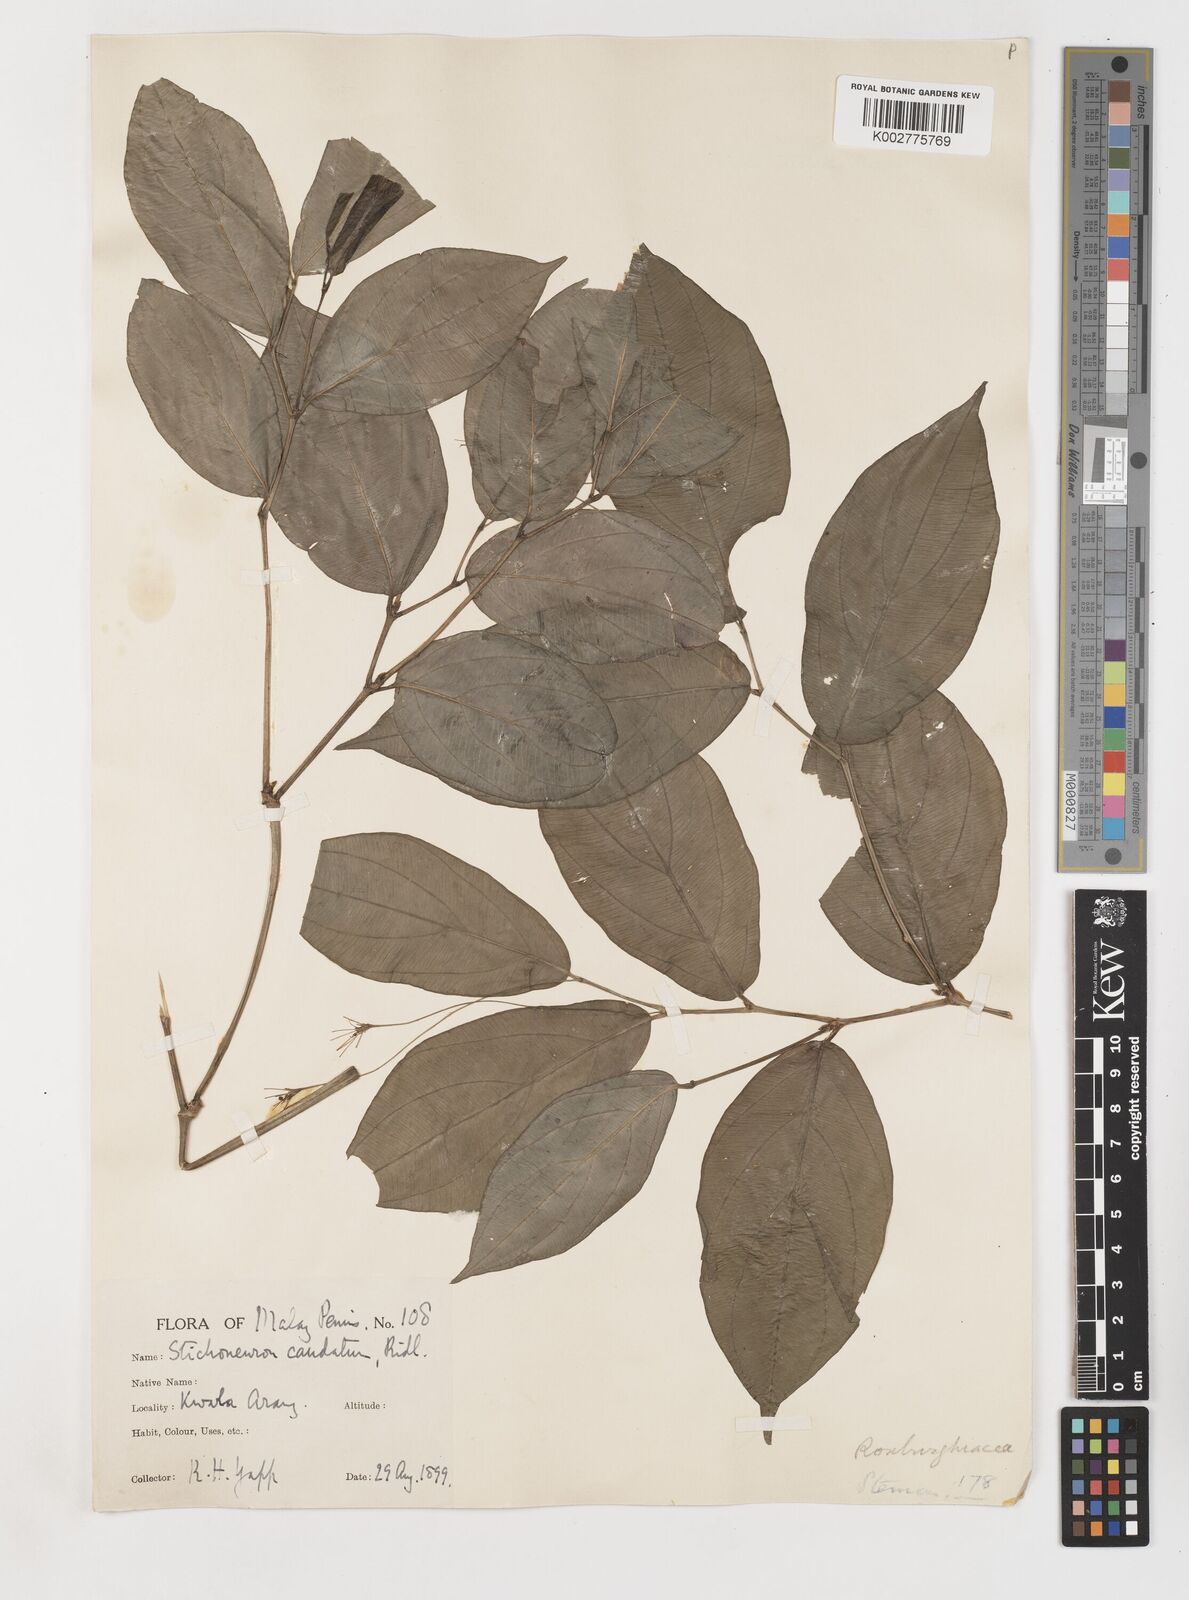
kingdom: Plantae
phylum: Tracheophyta
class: Liliopsida
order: Pandanales
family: Stemonaceae
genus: Stichoneuron
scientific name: Stichoneuron caudatum
